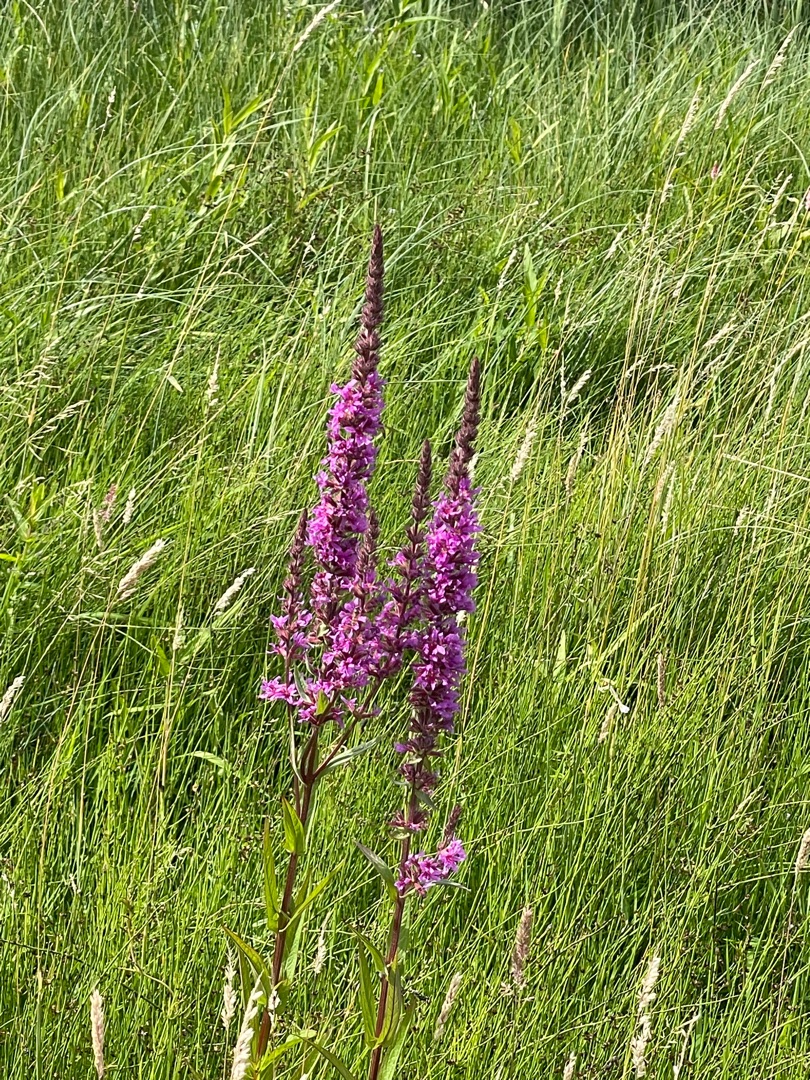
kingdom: Plantae
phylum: Tracheophyta
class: Magnoliopsida
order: Myrtales
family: Lythraceae
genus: Lythrum
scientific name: Lythrum salicaria
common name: Kattehale
